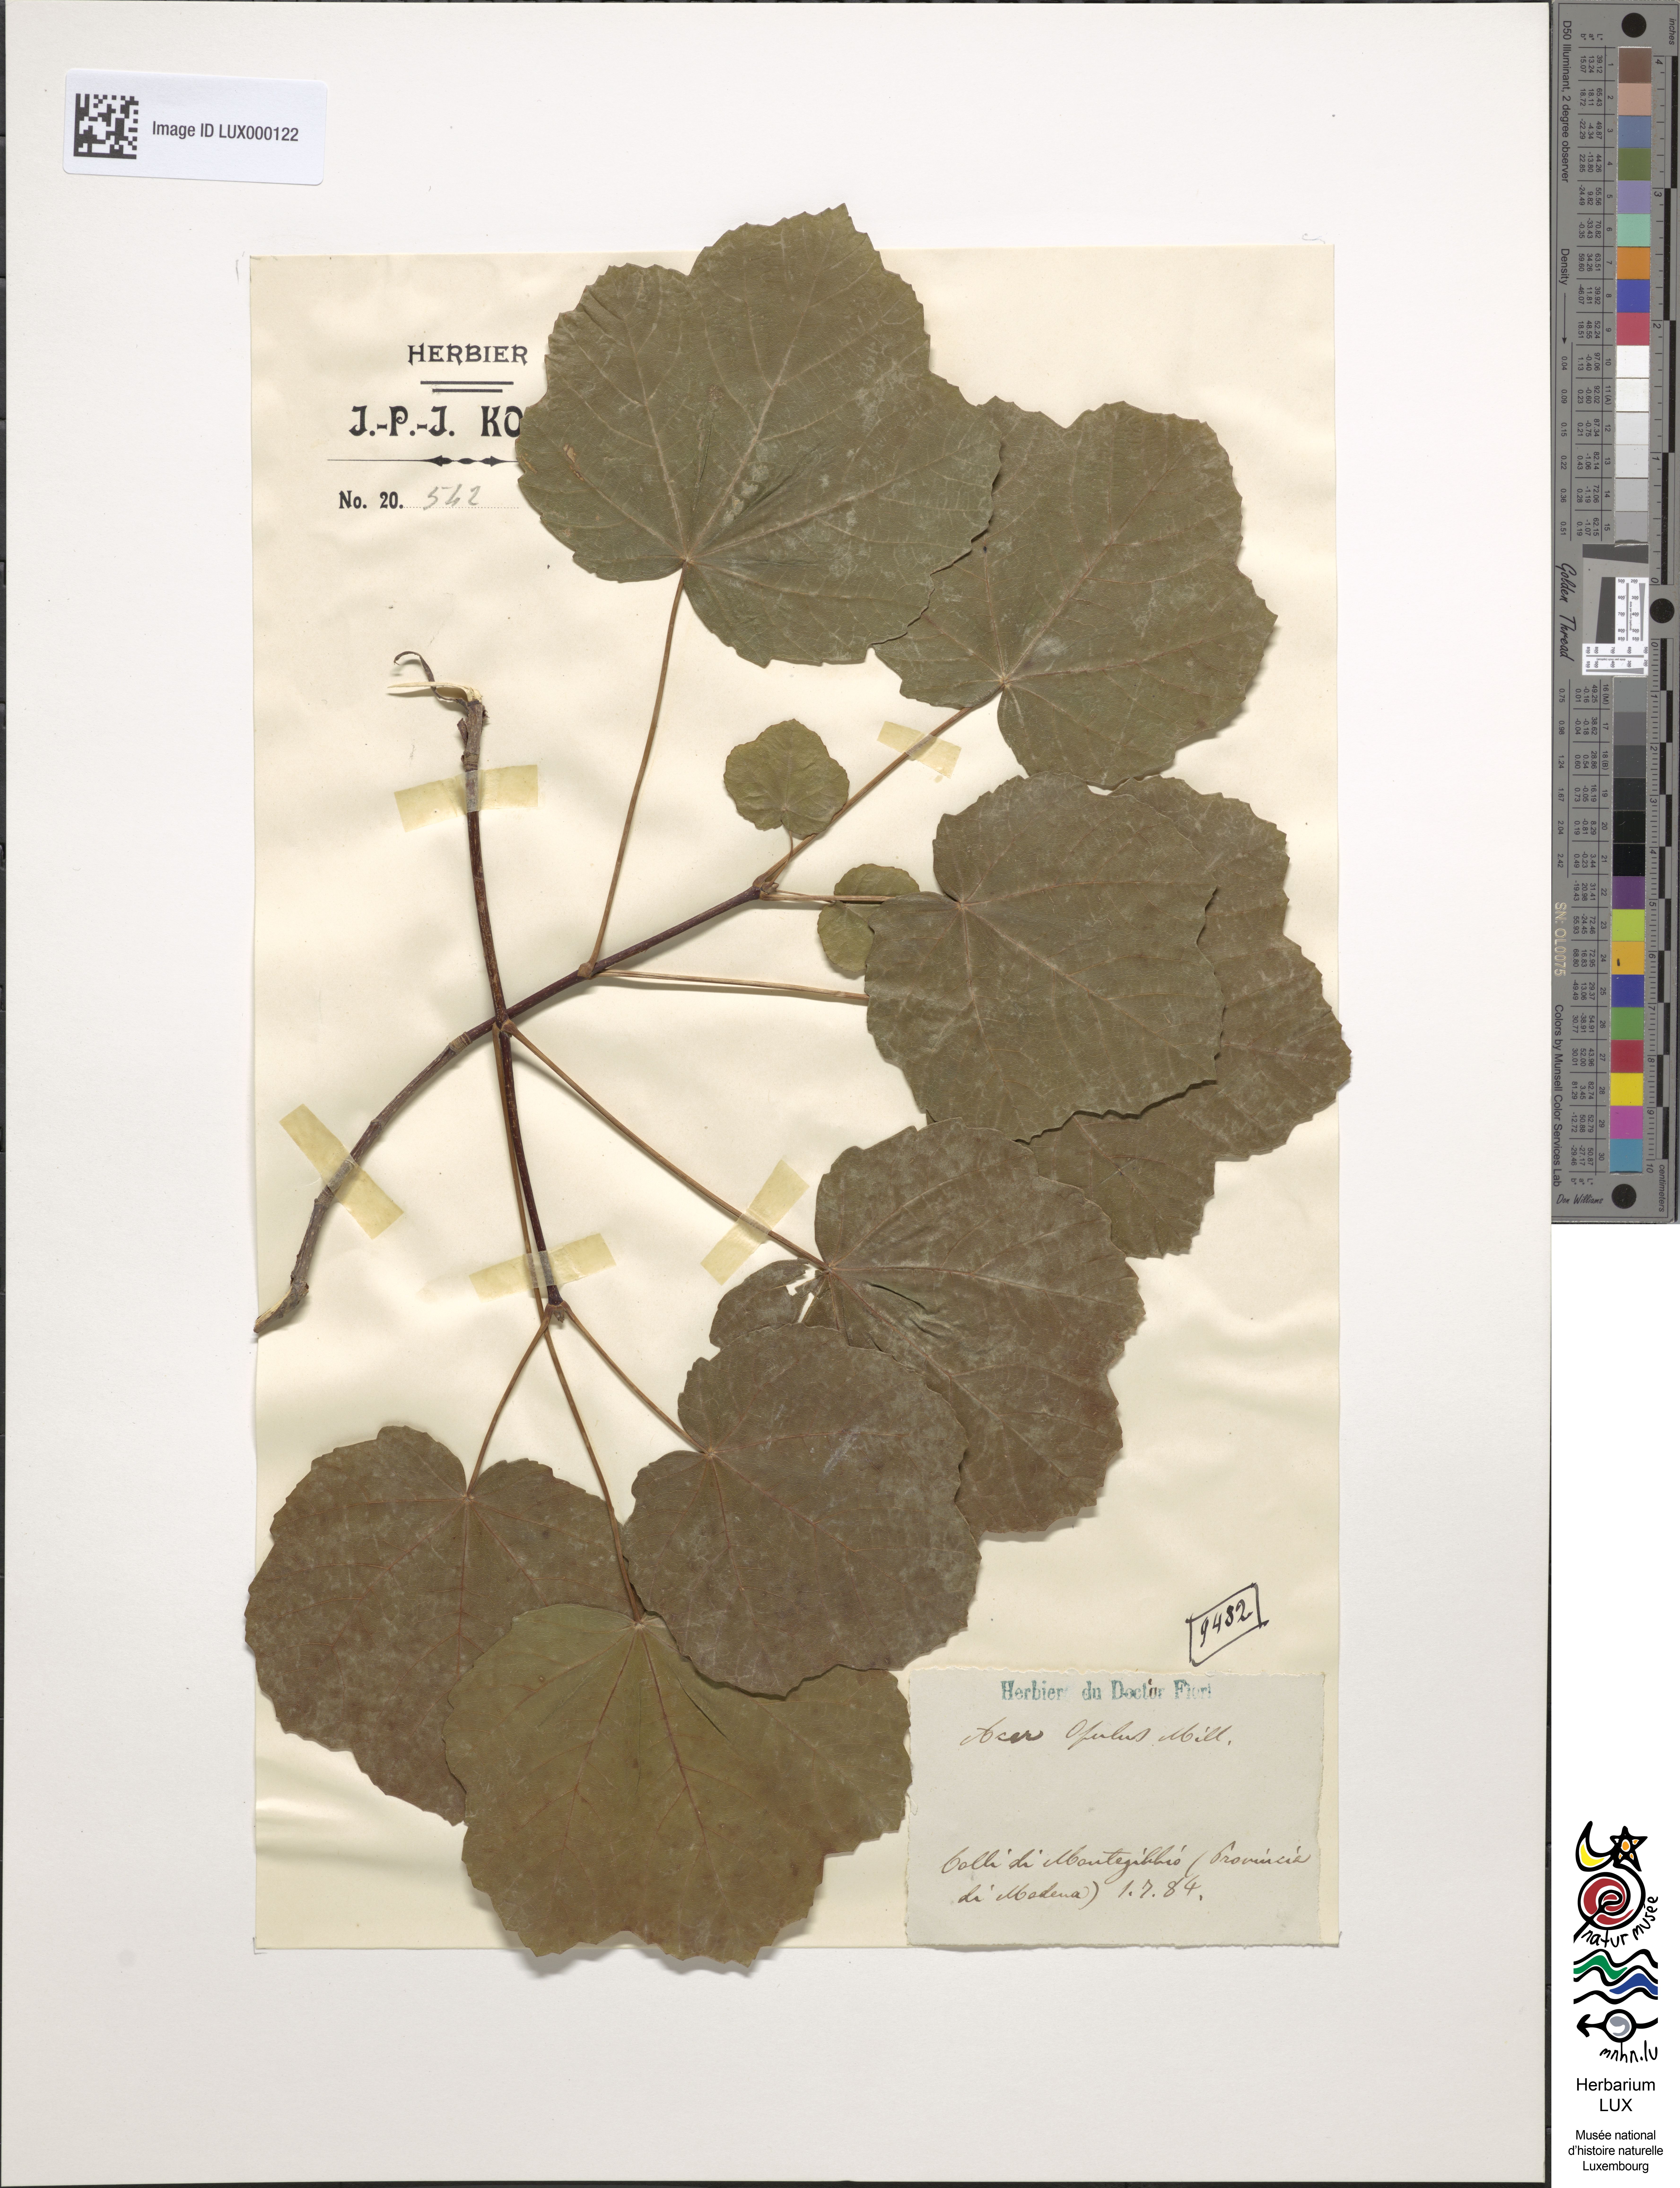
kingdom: Plantae
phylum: Tracheophyta
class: Magnoliopsida
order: Sapindales
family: Sapindaceae
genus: Acer
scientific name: Acer opalus
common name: Italian maple
